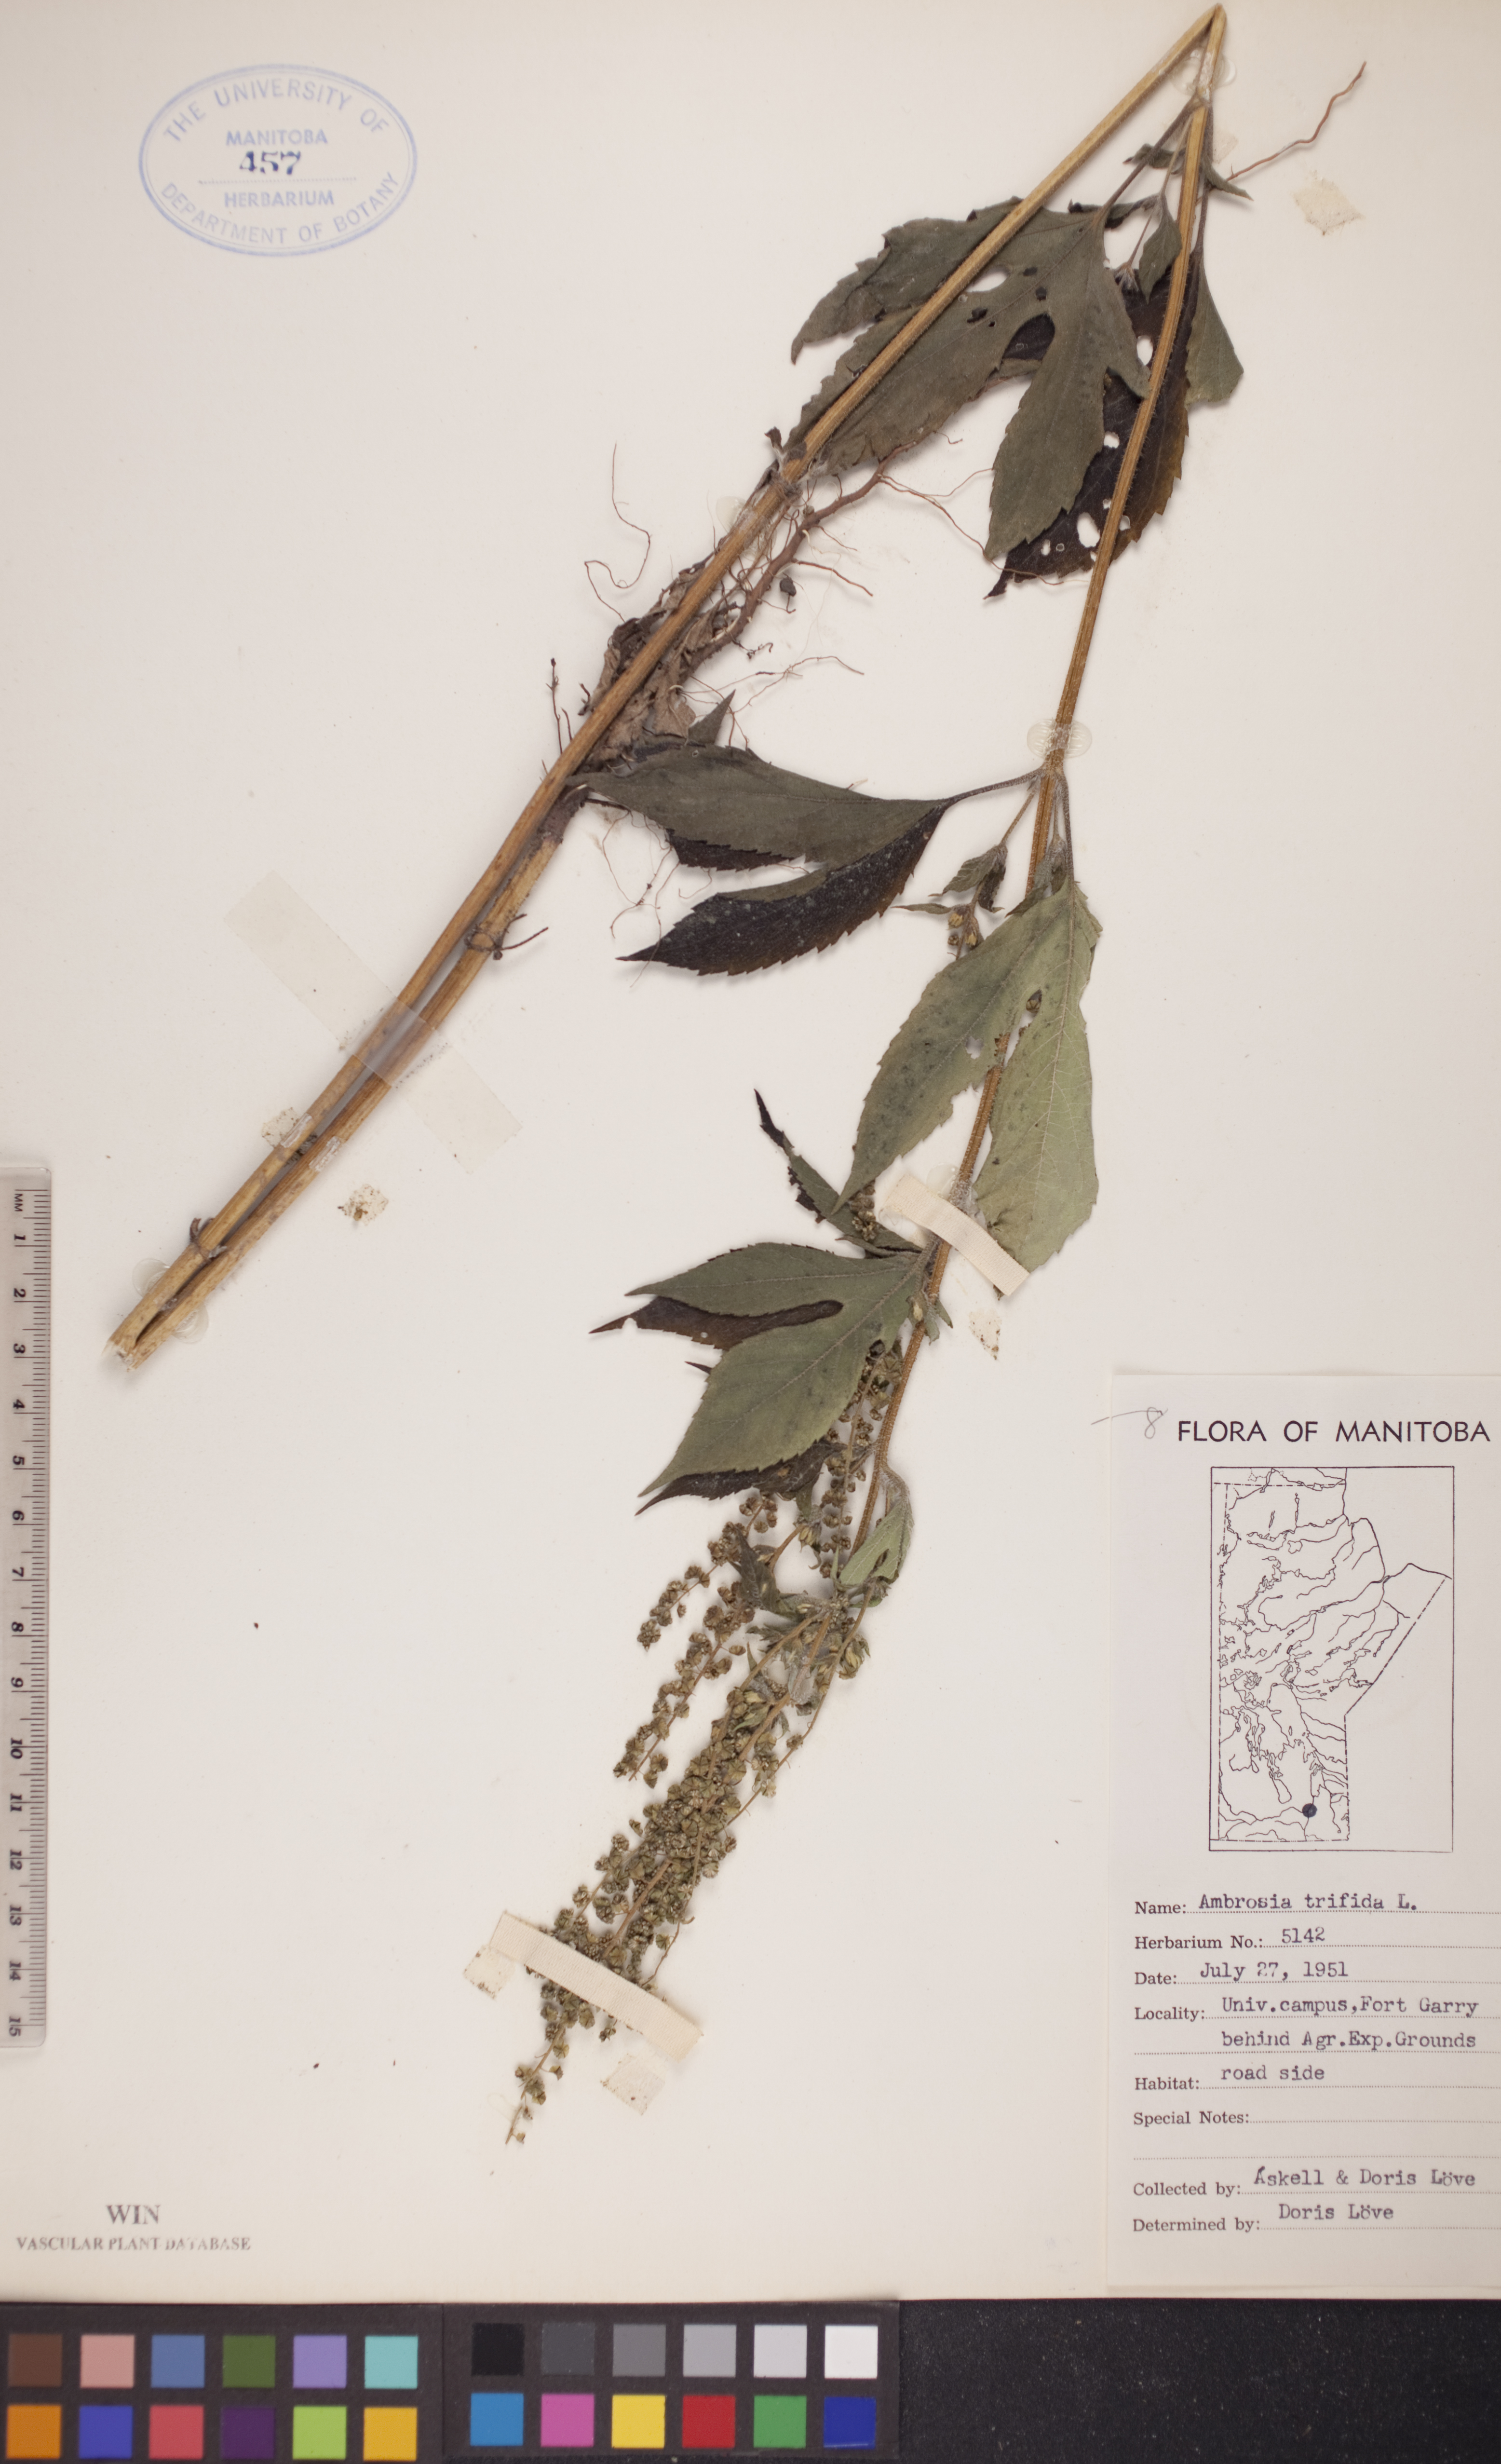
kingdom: Plantae
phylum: Tracheophyta
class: Magnoliopsida
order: Asterales
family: Asteraceae
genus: Ambrosia
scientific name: Ambrosia trifida
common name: Giant ragweed
